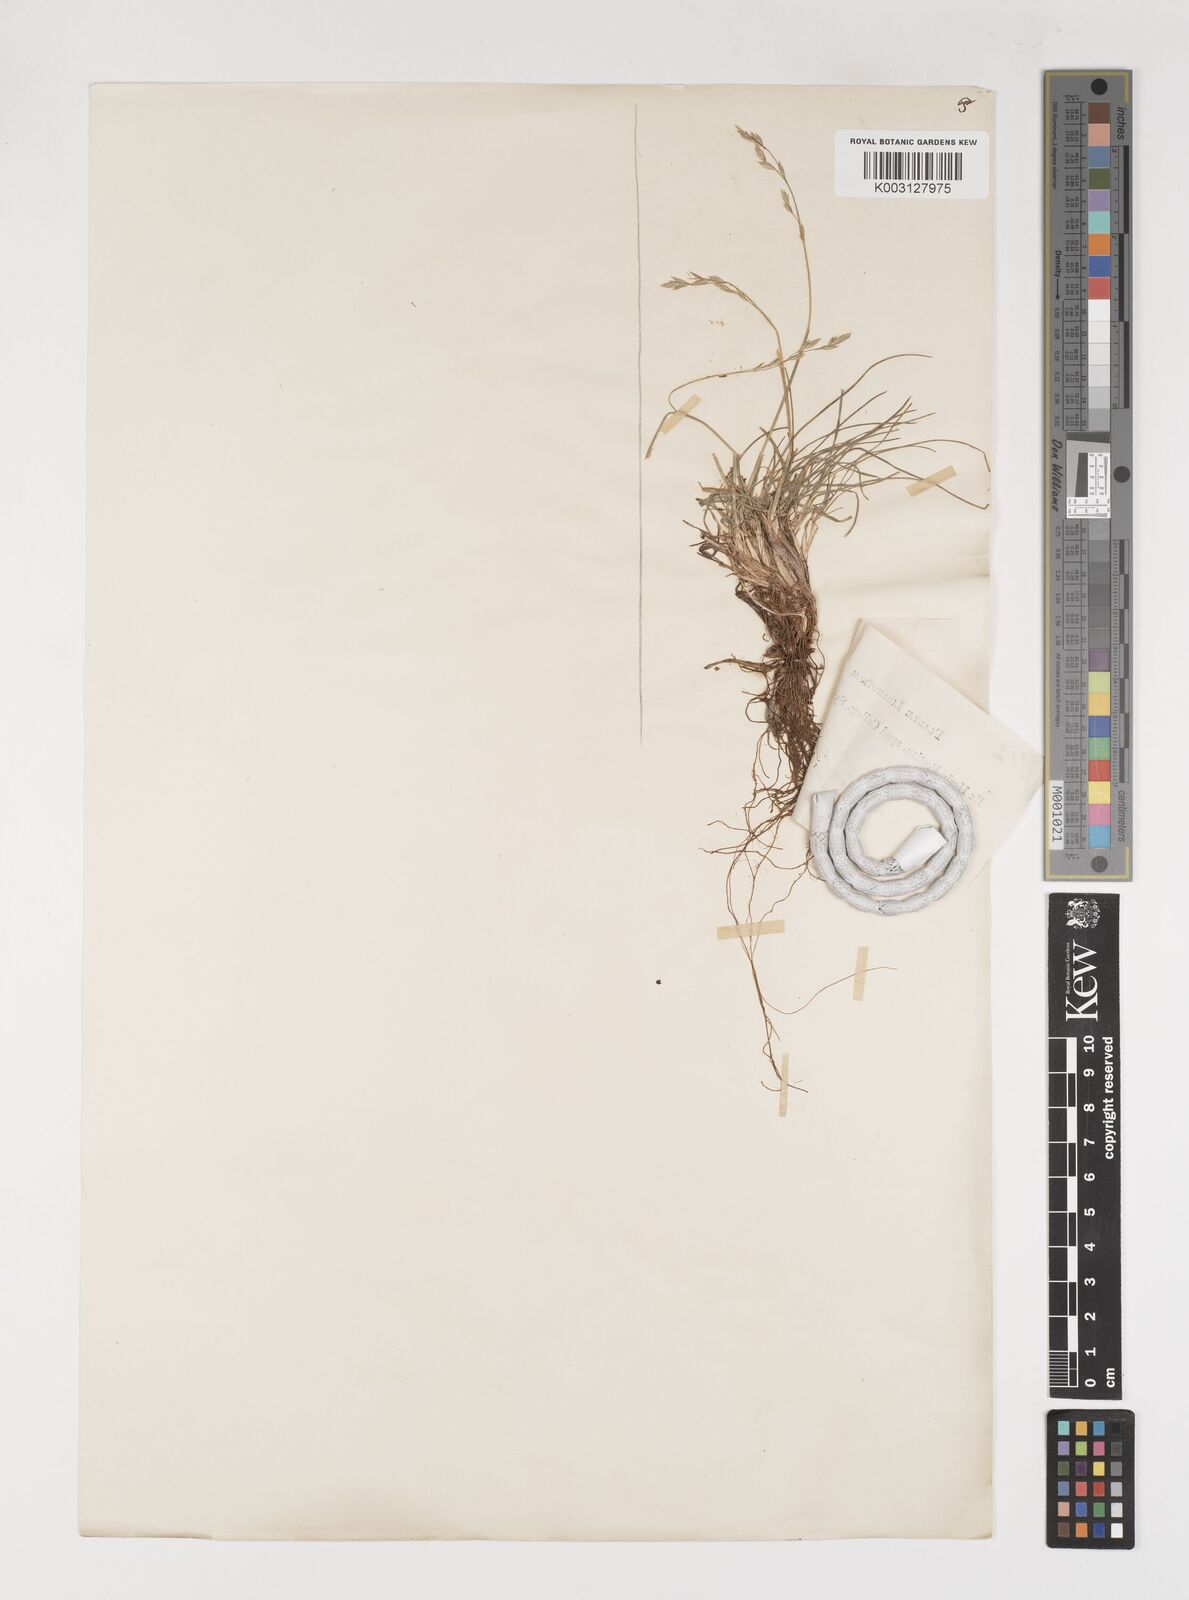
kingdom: Plantae
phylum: Tracheophyta
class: Liliopsida
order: Poales
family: Poaceae
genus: Poa
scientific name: Poa
